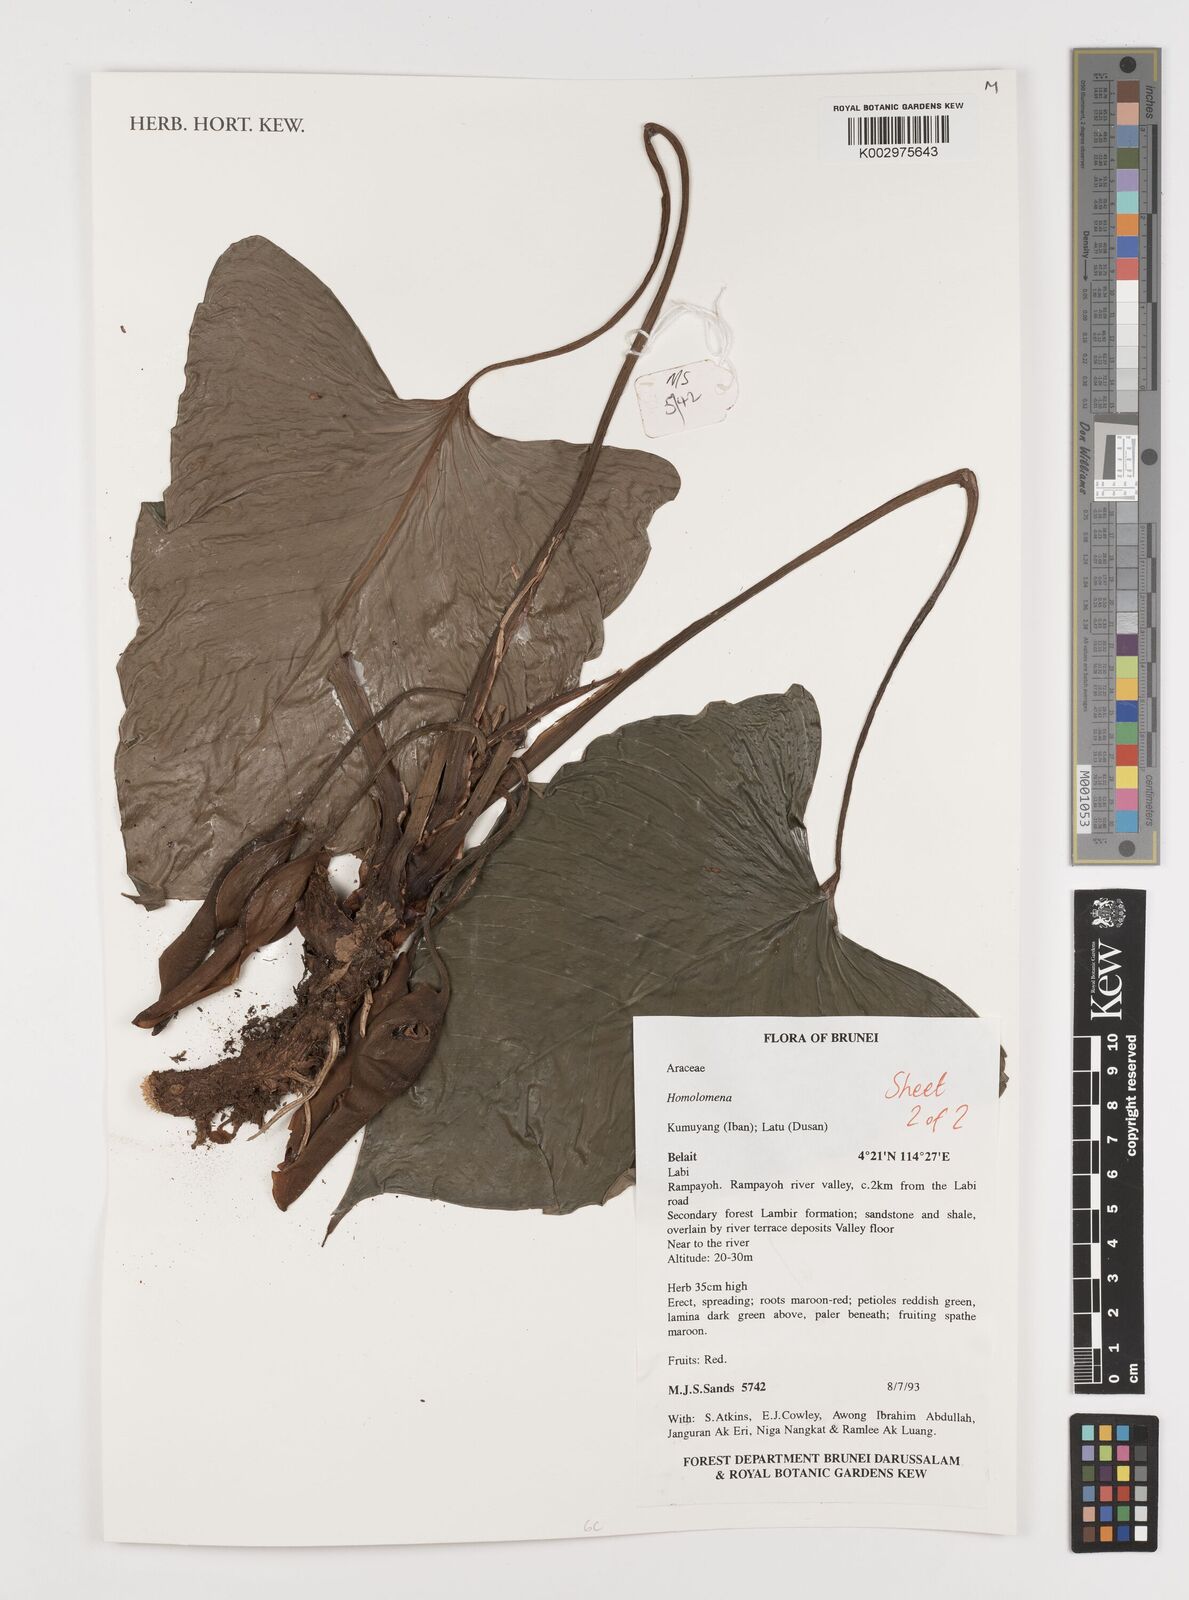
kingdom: Plantae
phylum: Tracheophyta
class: Liliopsida
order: Alismatales
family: Araceae
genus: Homalomena
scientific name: Homalomena
